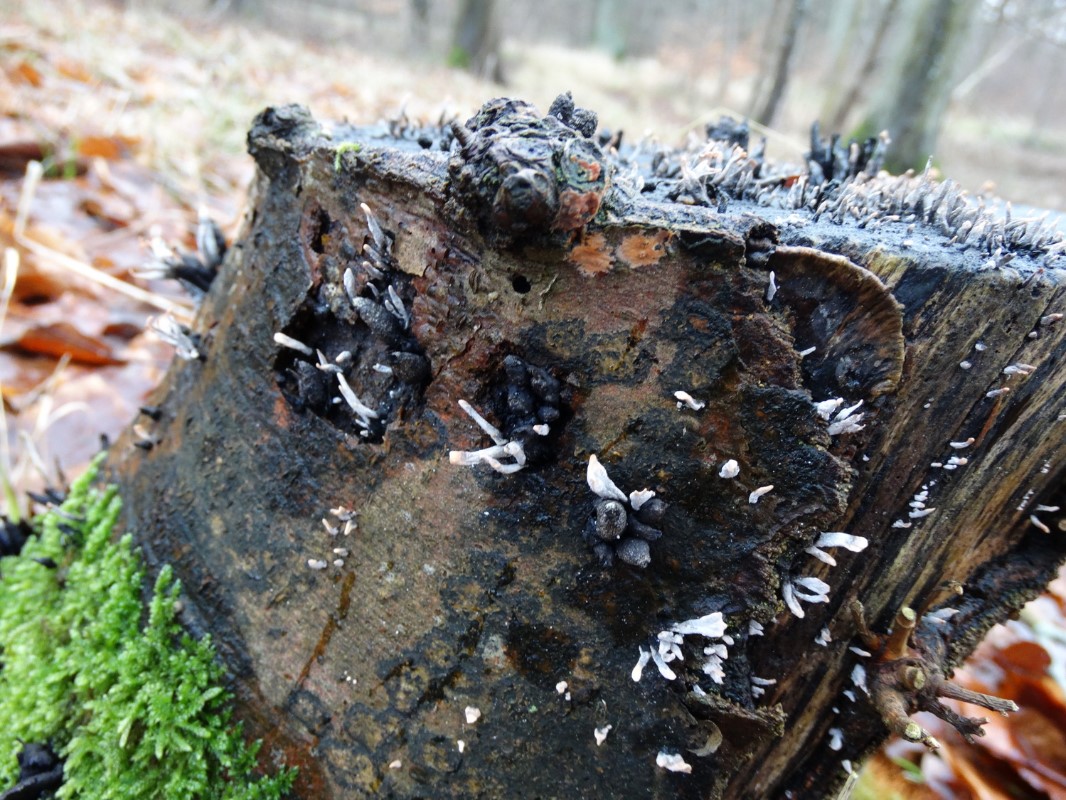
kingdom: Fungi
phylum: Ascomycota
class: Sordariomycetes
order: Xylariales
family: Xylariaceae
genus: Xylaria
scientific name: Xylaria hypoxylon
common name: grenet stødsvamp
